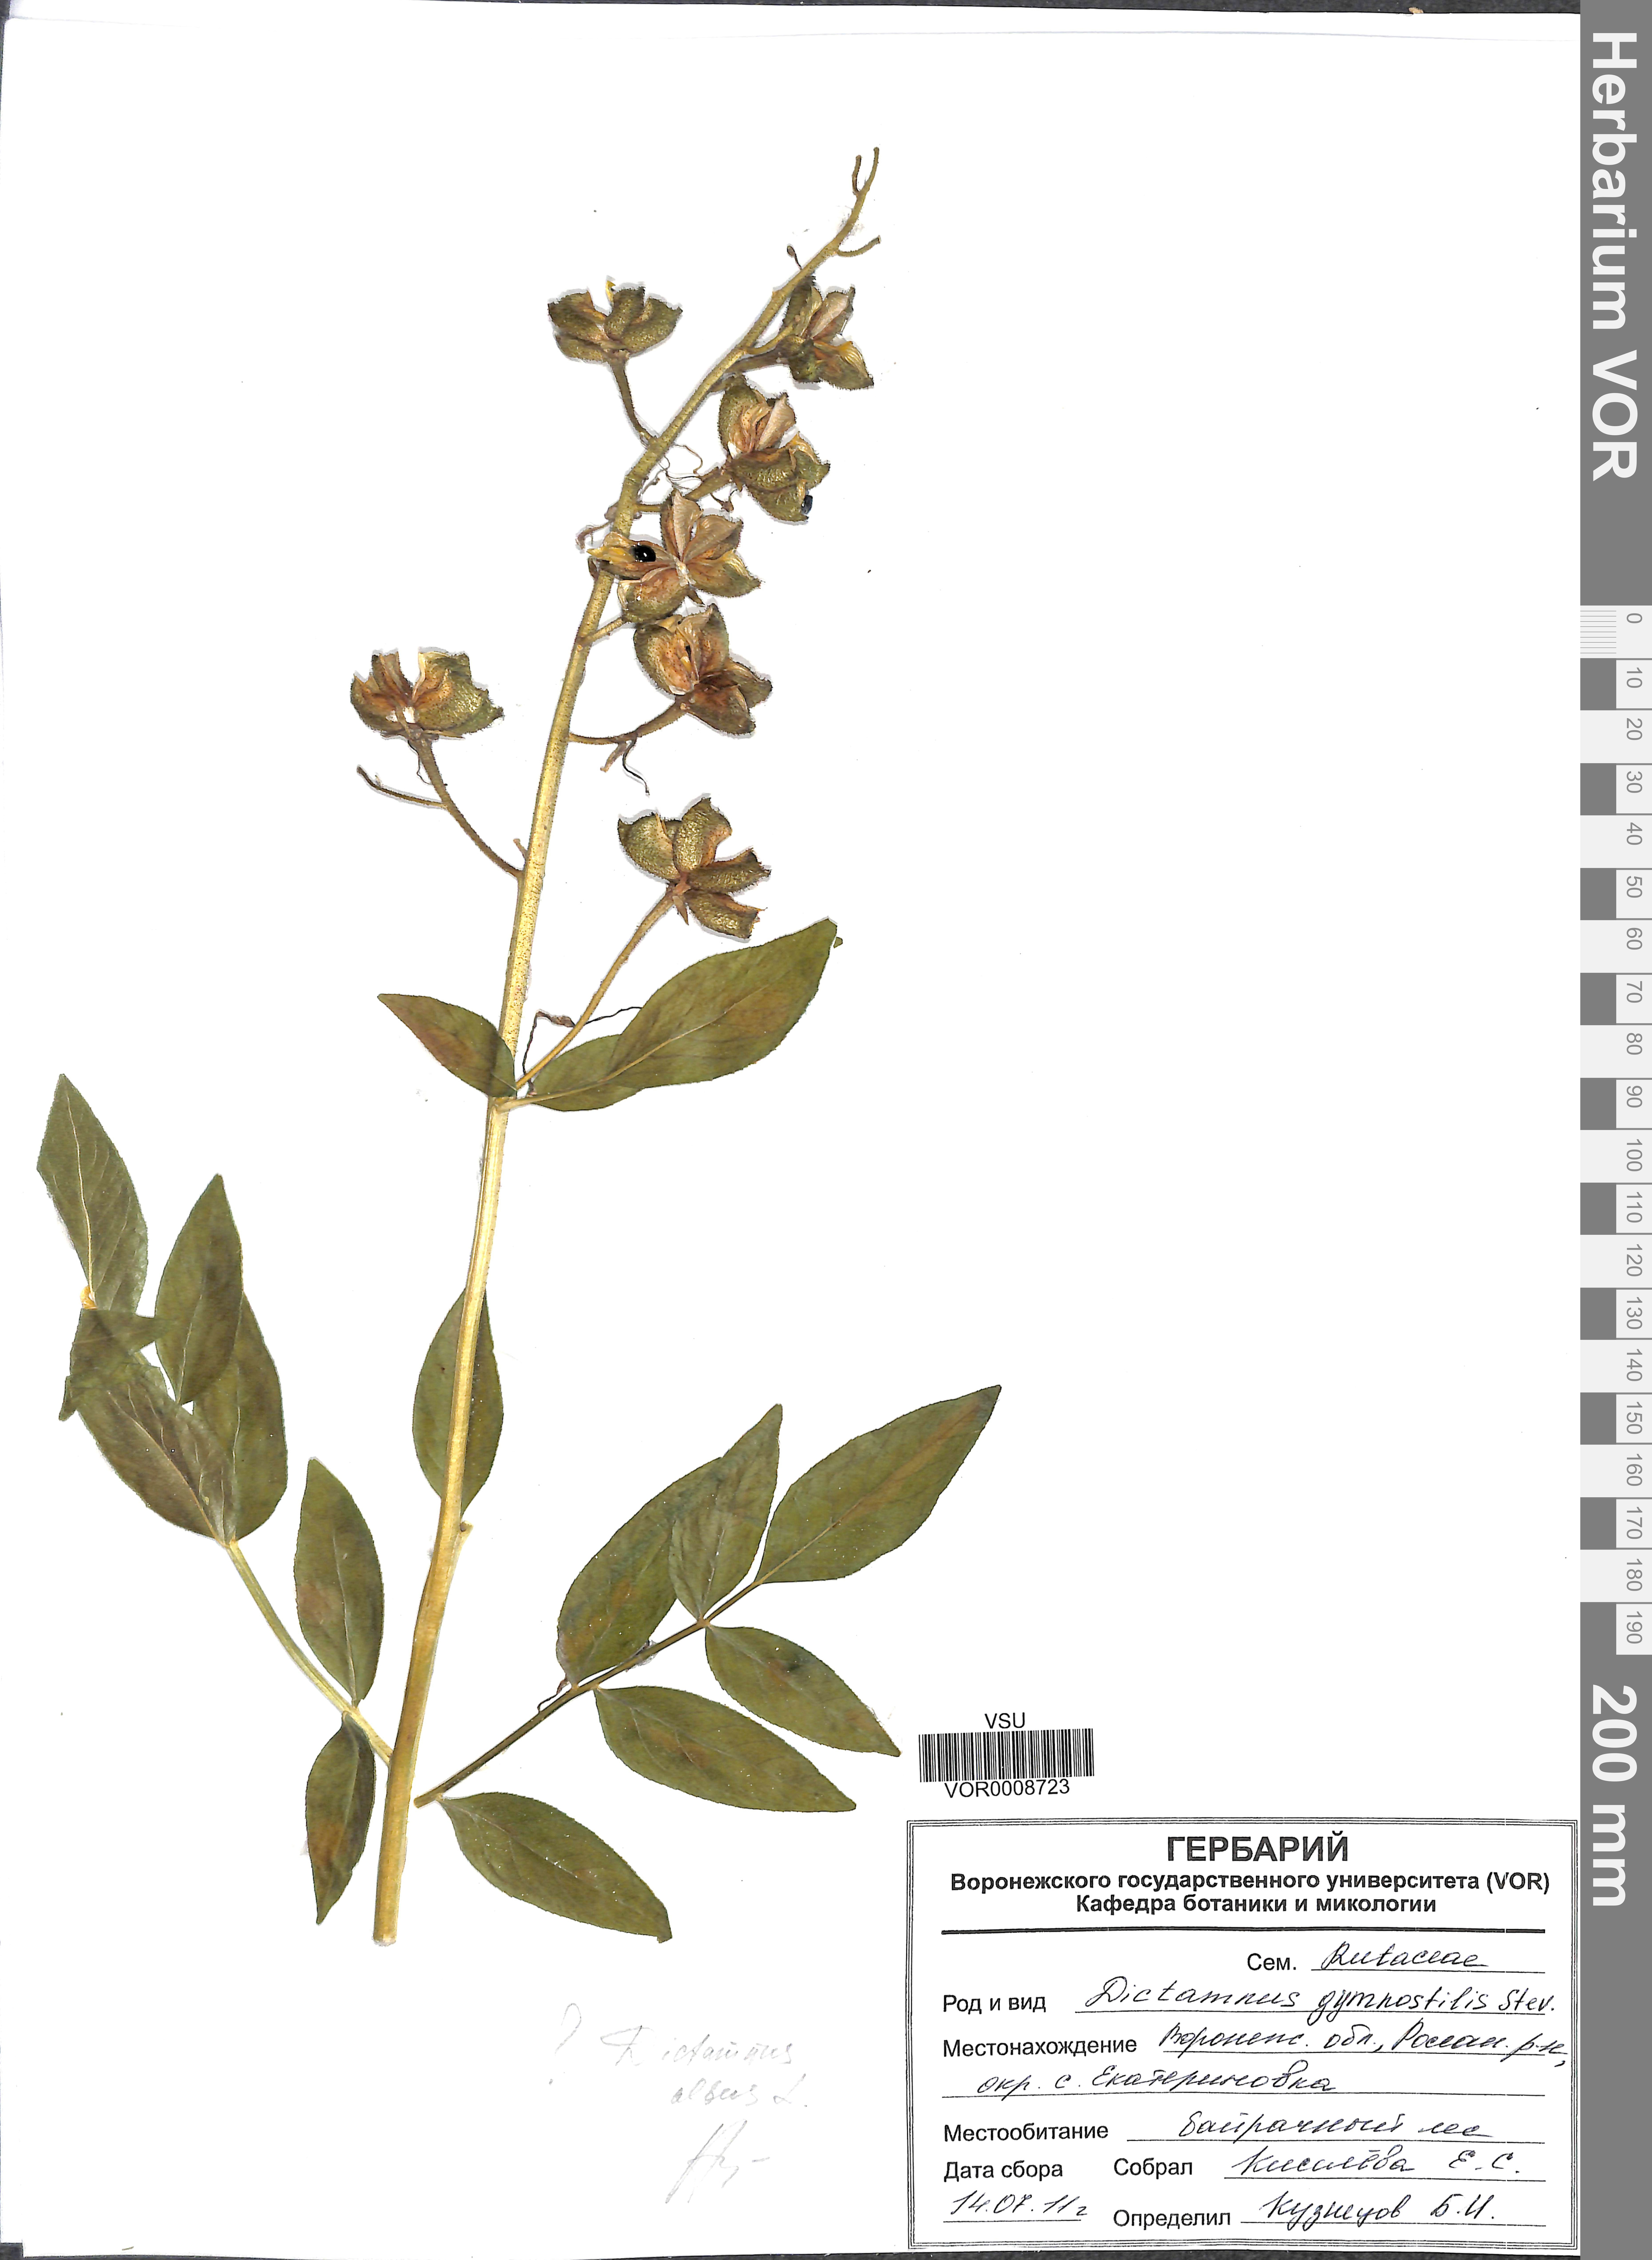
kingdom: Plantae
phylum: Tracheophyta
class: Magnoliopsida
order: Sapindales
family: Rutaceae
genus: Dictamnus
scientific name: Dictamnus albus
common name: Gasplant
